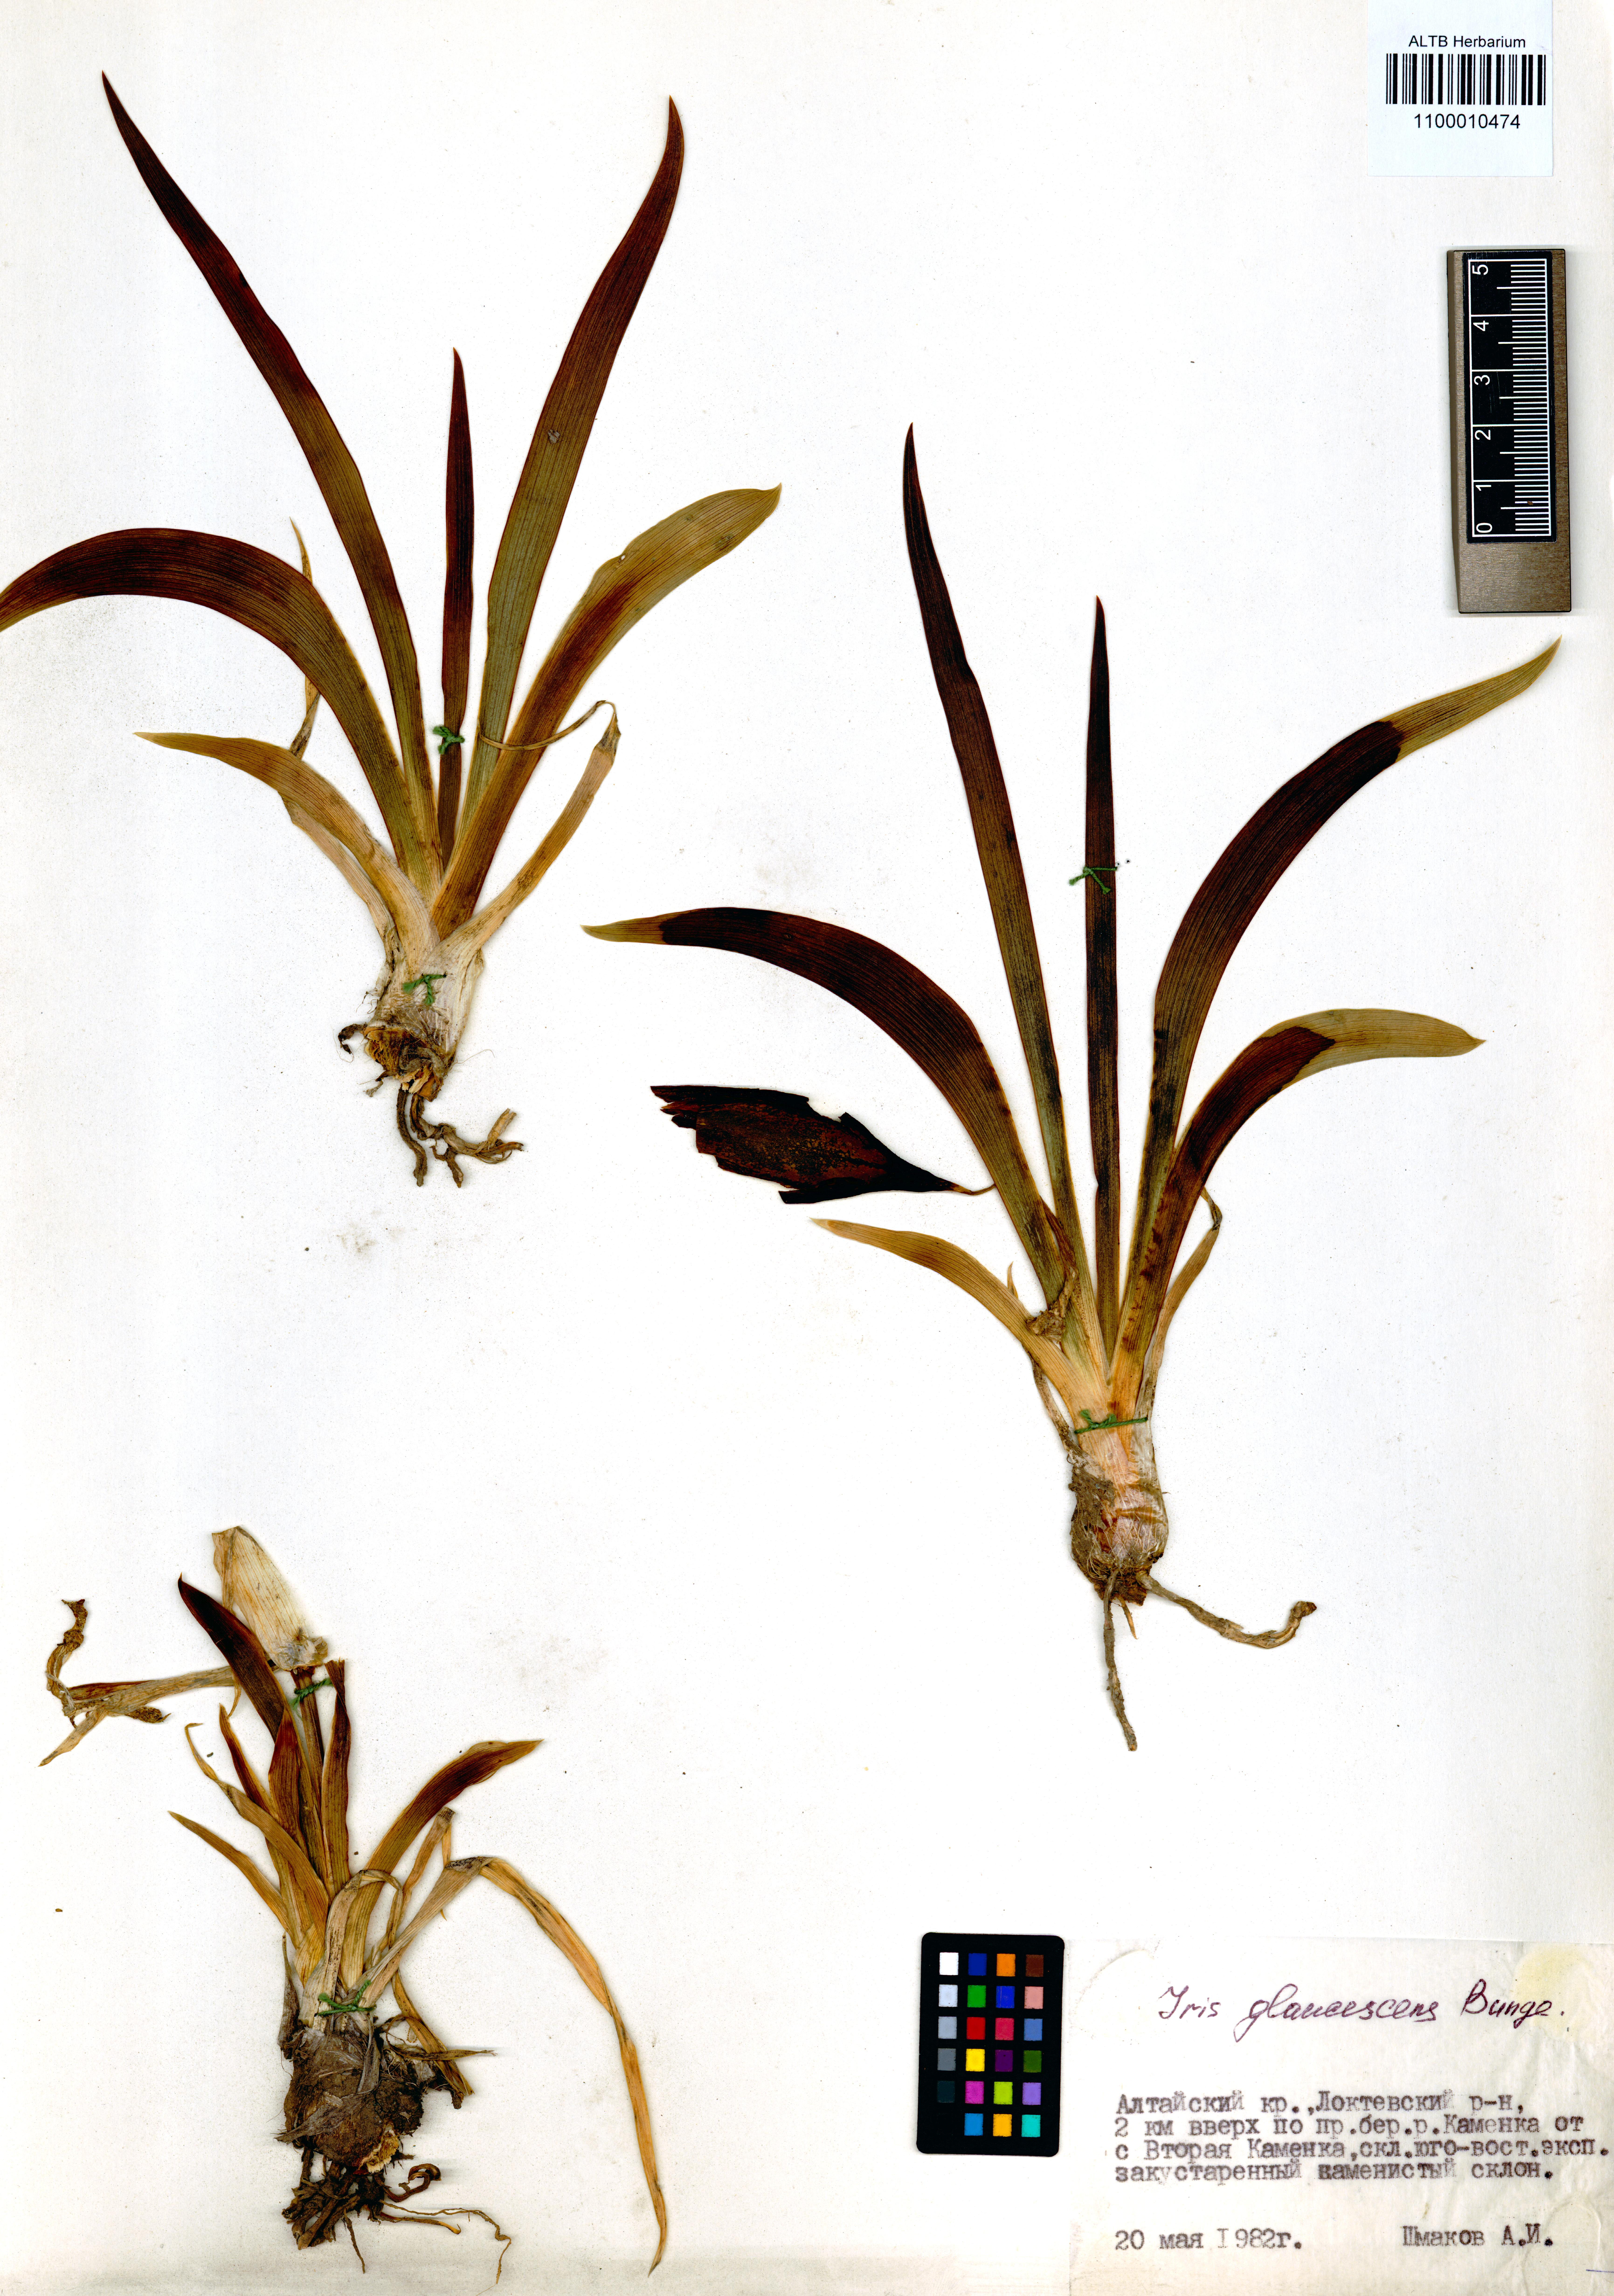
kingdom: Plantae
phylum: Tracheophyta
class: Liliopsida
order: Asparagales
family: Iridaceae
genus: Iris
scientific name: Iris glaucescens
